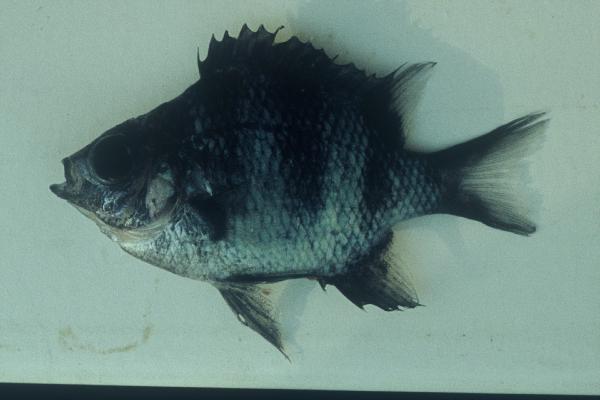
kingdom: Animalia
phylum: Chordata
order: Perciformes
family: Pomacentridae
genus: Abudefduf
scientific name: Abudefduf natalensis
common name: Natal sergeant
